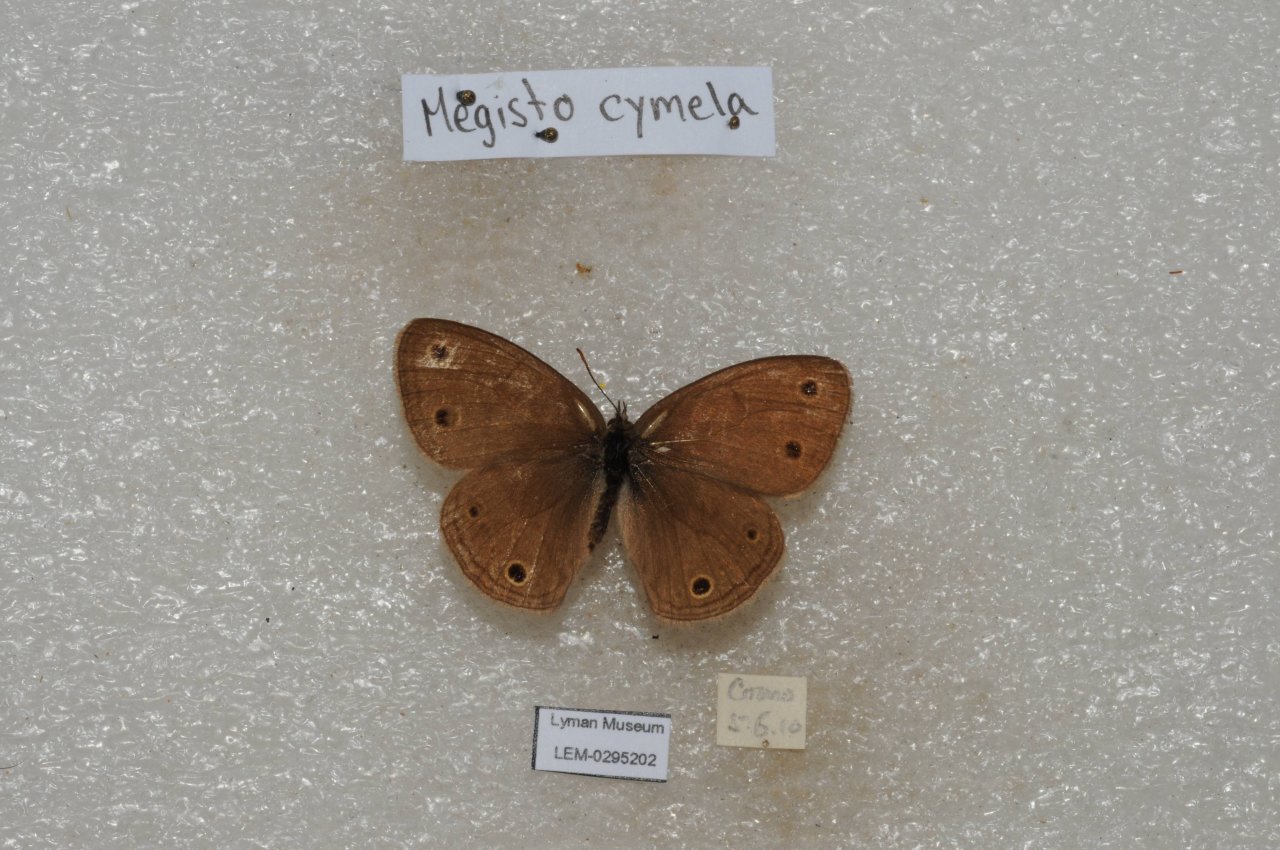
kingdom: Animalia
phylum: Arthropoda
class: Insecta
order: Lepidoptera
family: Nymphalidae
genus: Euptychia
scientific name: Euptychia cymela
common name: Little Wood Satyr
